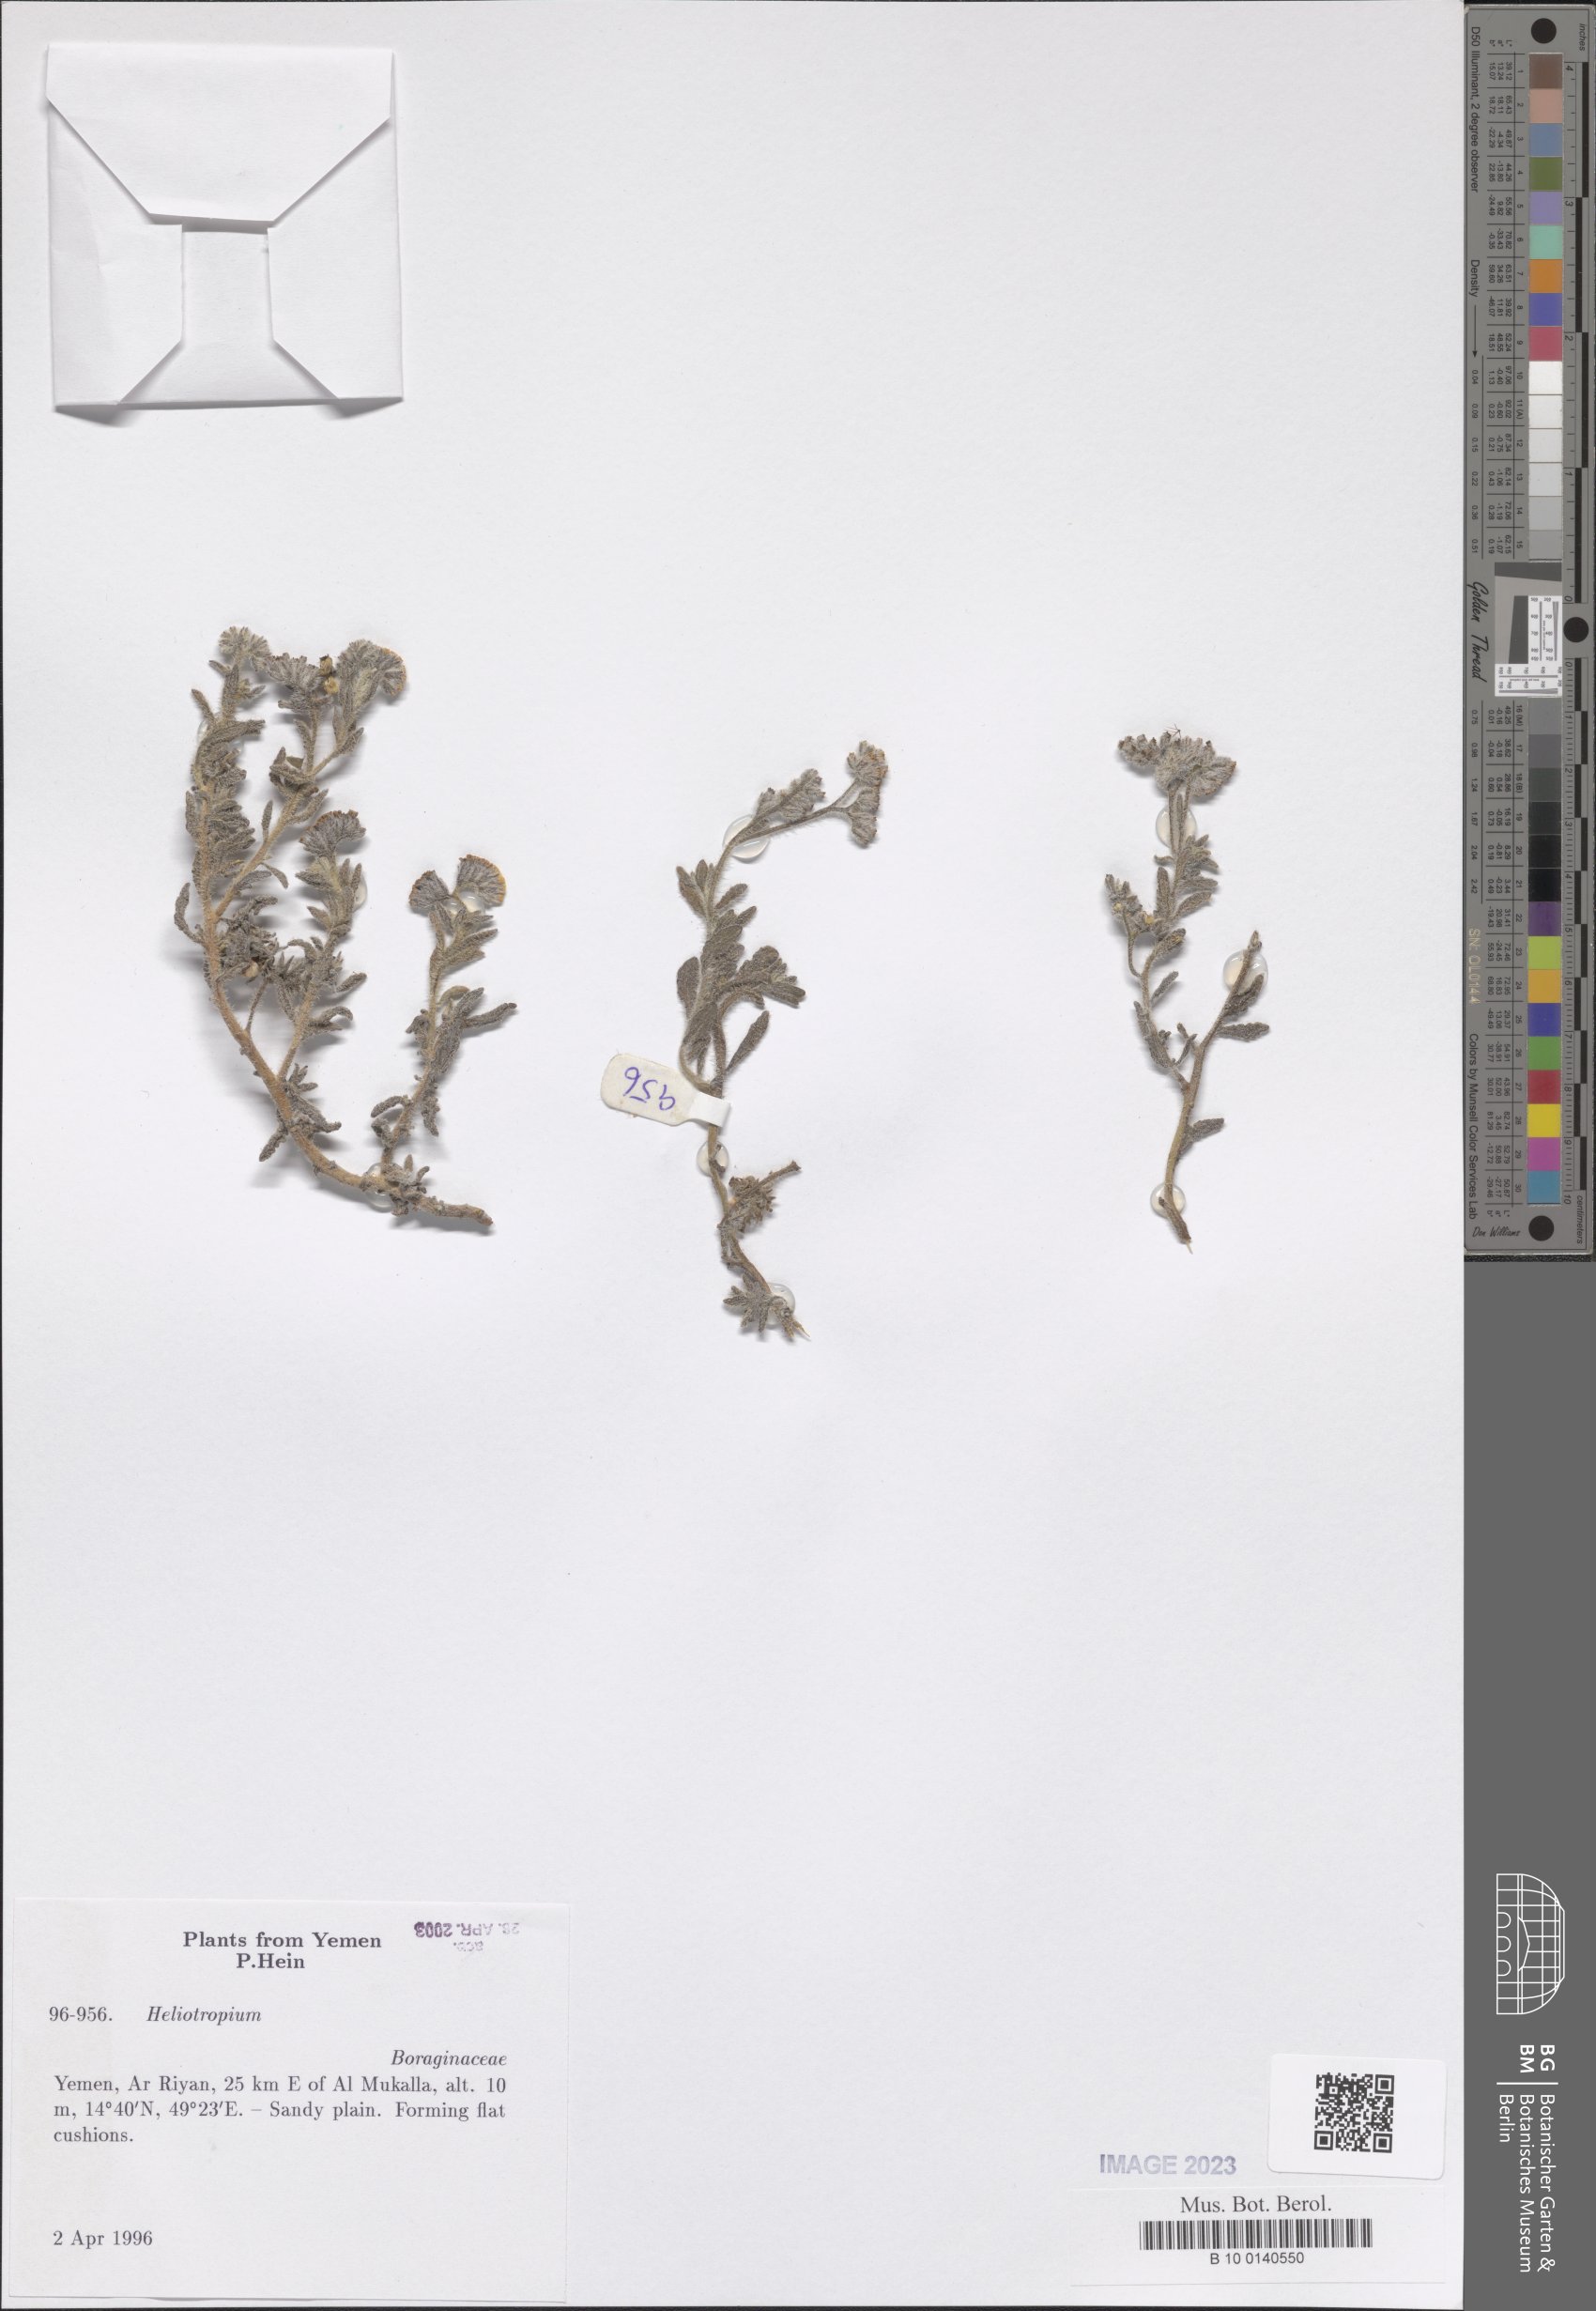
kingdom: Plantae
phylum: Tracheophyta
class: Magnoliopsida
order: Boraginales
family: Heliotropiaceae
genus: Heliotropium
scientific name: Heliotropium
